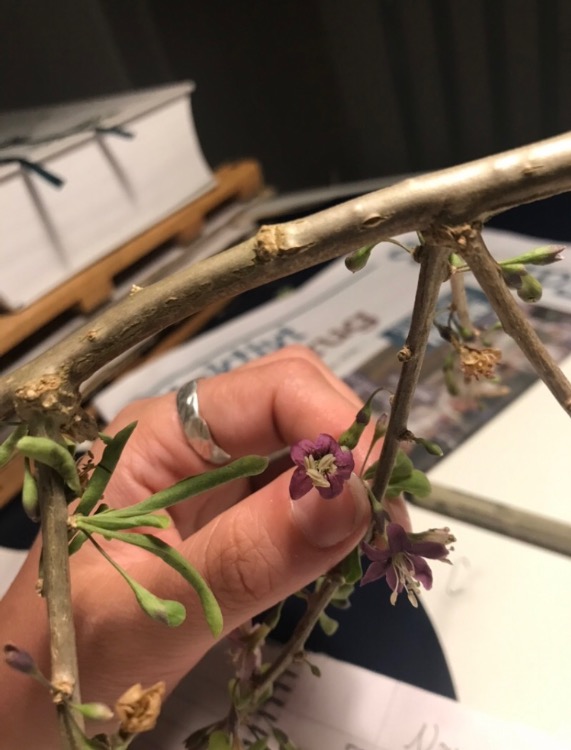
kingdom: Plantae
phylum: Tracheophyta
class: Magnoliopsida
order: Solanales
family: Solanaceae
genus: Lycium
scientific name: Lycium barbarum
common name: Bukketorn
